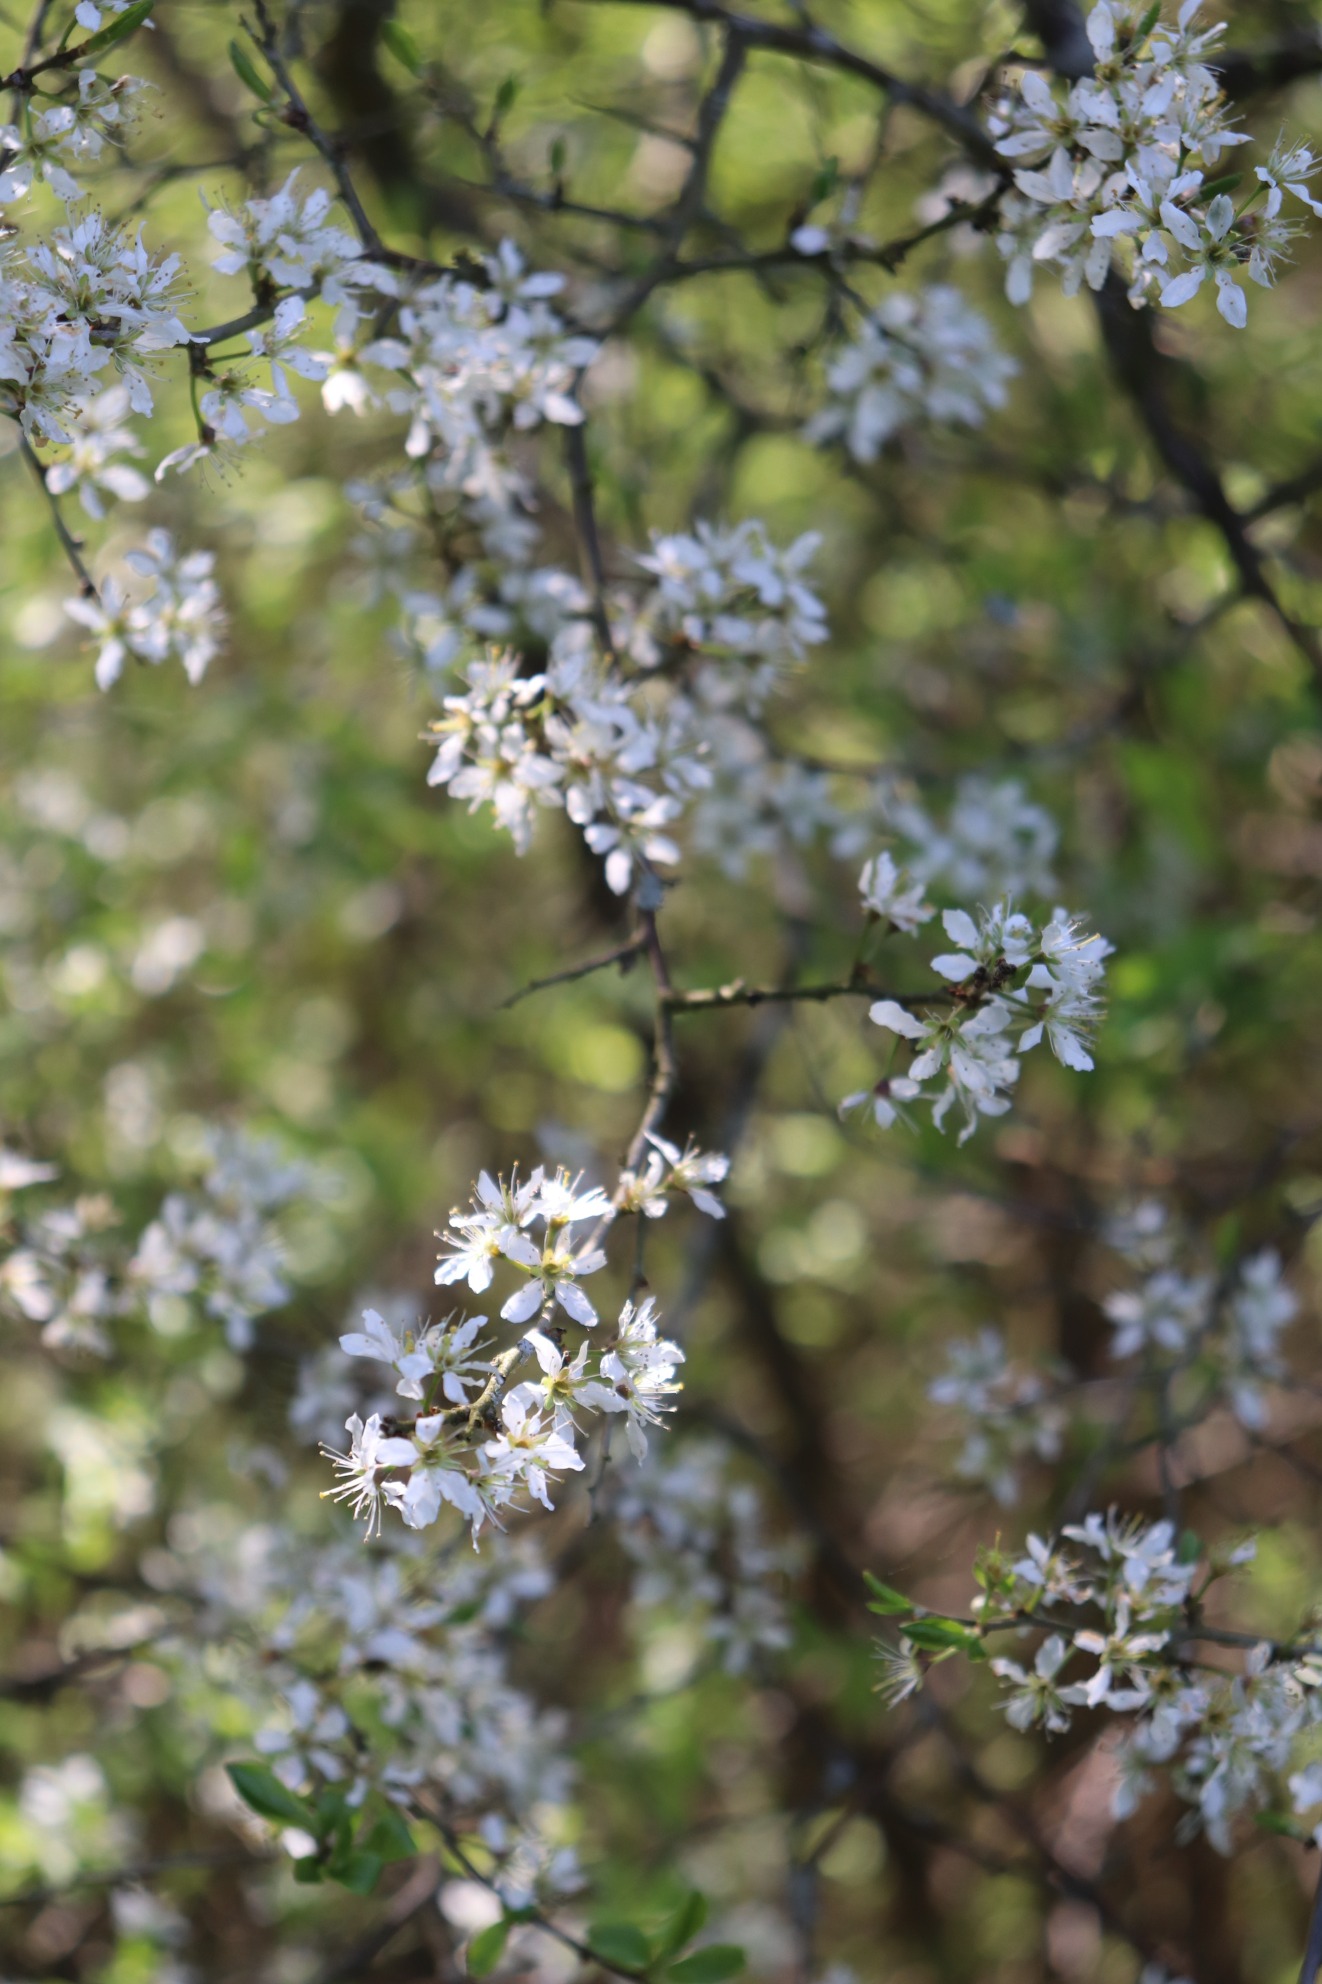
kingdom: Plantae
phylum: Tracheophyta
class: Magnoliopsida
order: Rosales
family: Rosaceae
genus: Prunus
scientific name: Prunus spinosa
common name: Slåen
